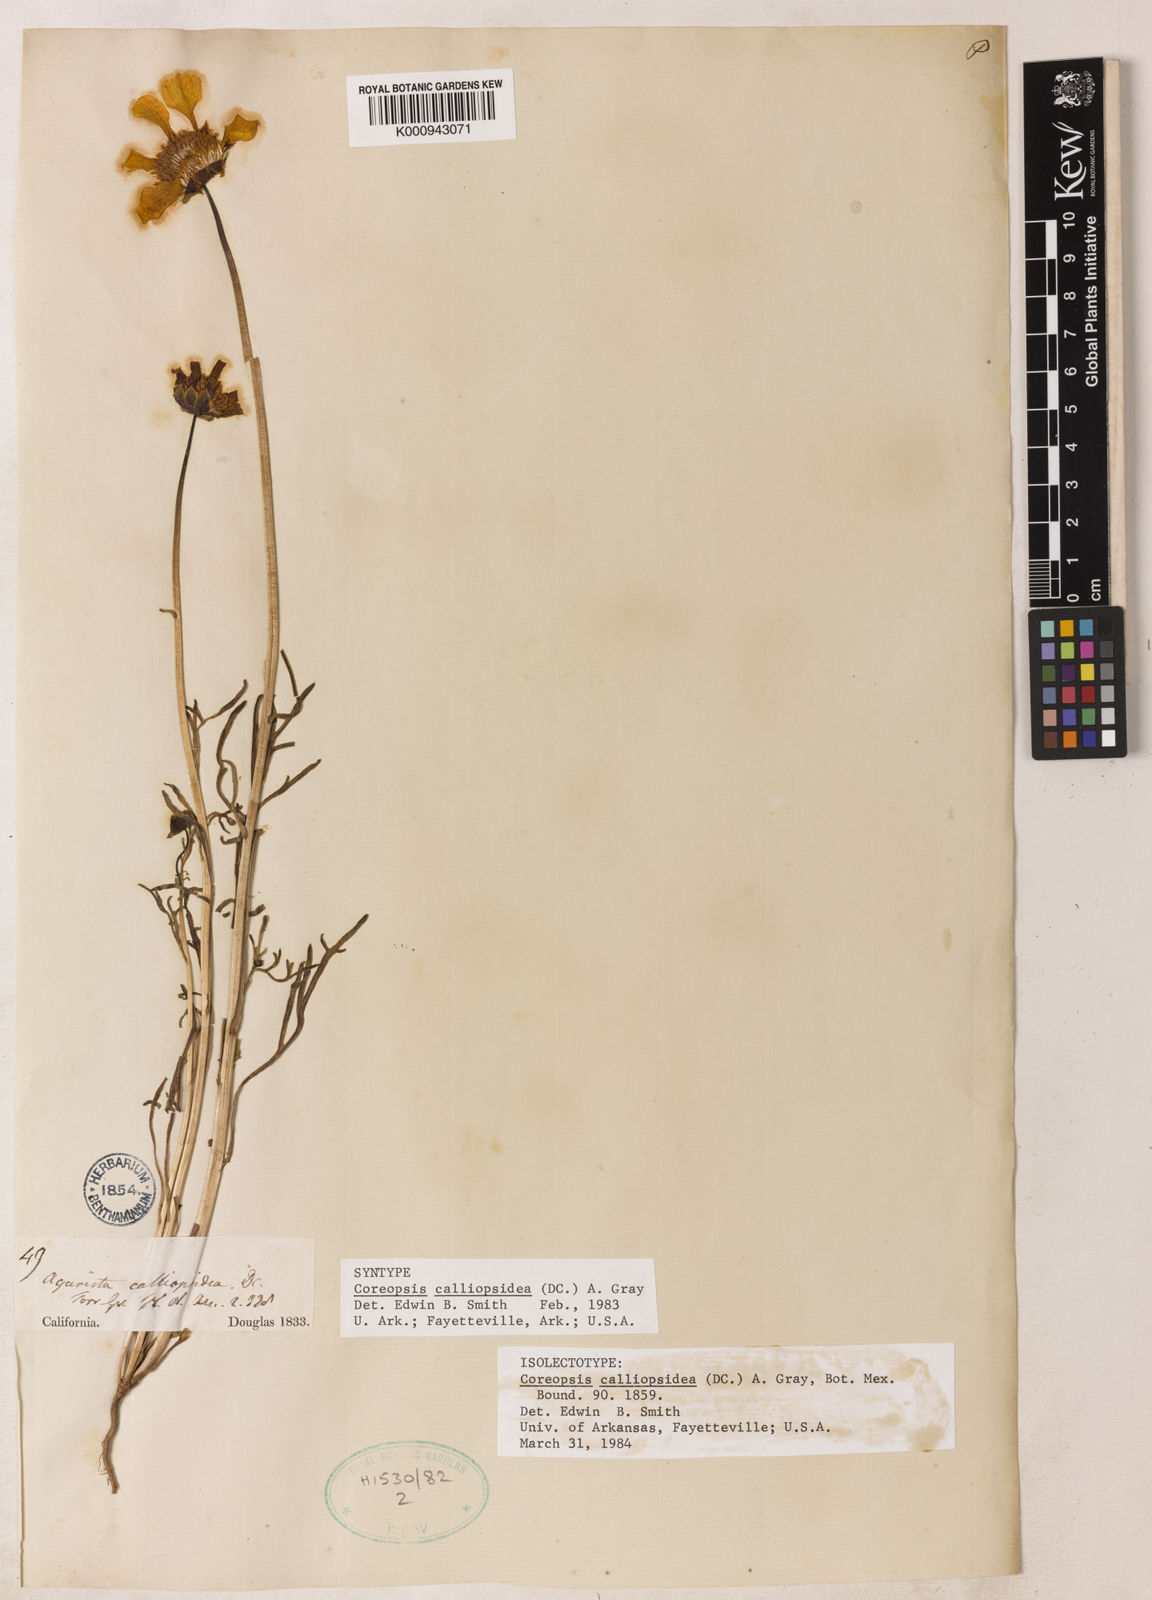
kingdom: Plantae
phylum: Tracheophyta
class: Magnoliopsida
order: Asterales
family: Asteraceae
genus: Coreopsis
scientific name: Coreopsis calliopsidea
